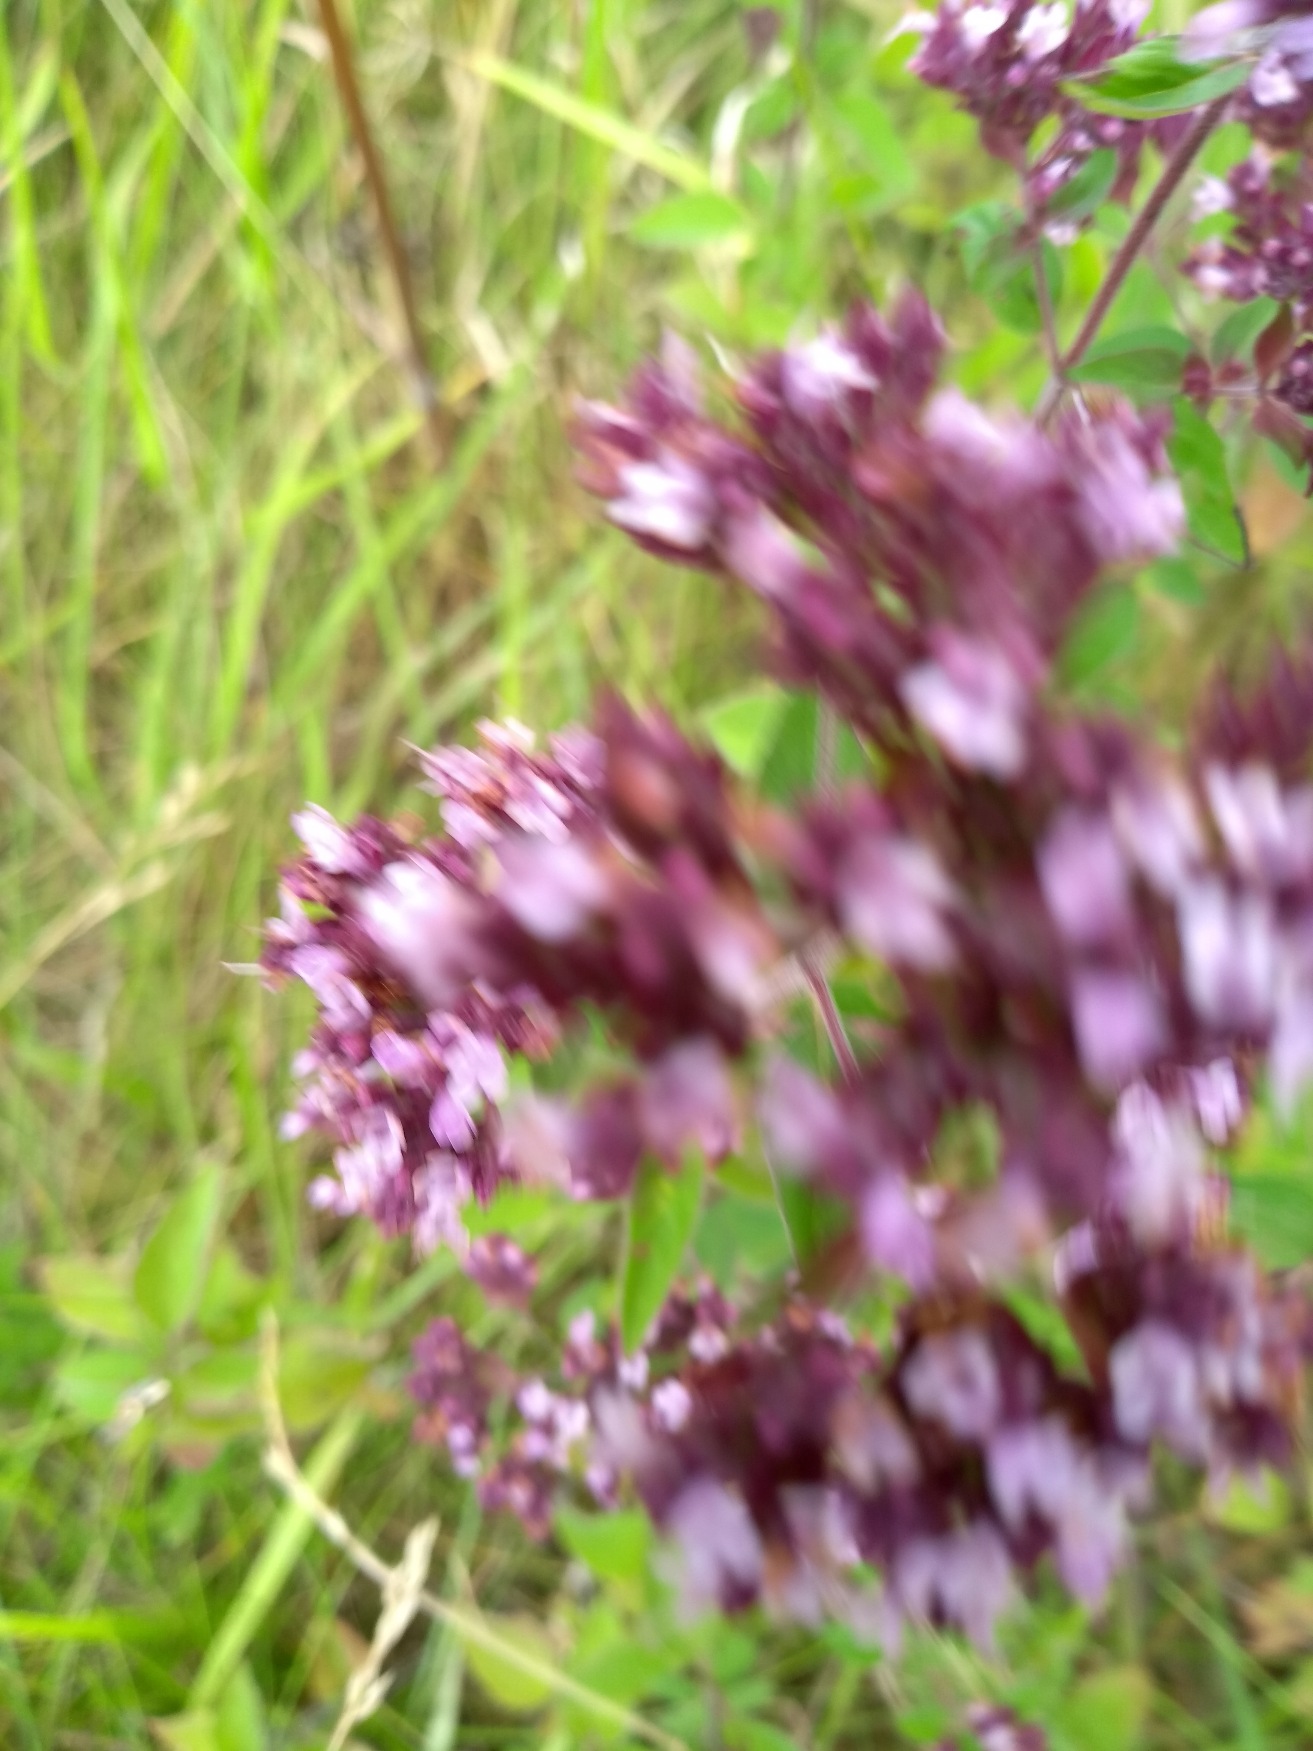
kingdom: Plantae
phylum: Tracheophyta
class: Magnoliopsida
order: Lamiales
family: Lamiaceae
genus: Origanum
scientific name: Origanum vulgare
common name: Merian
